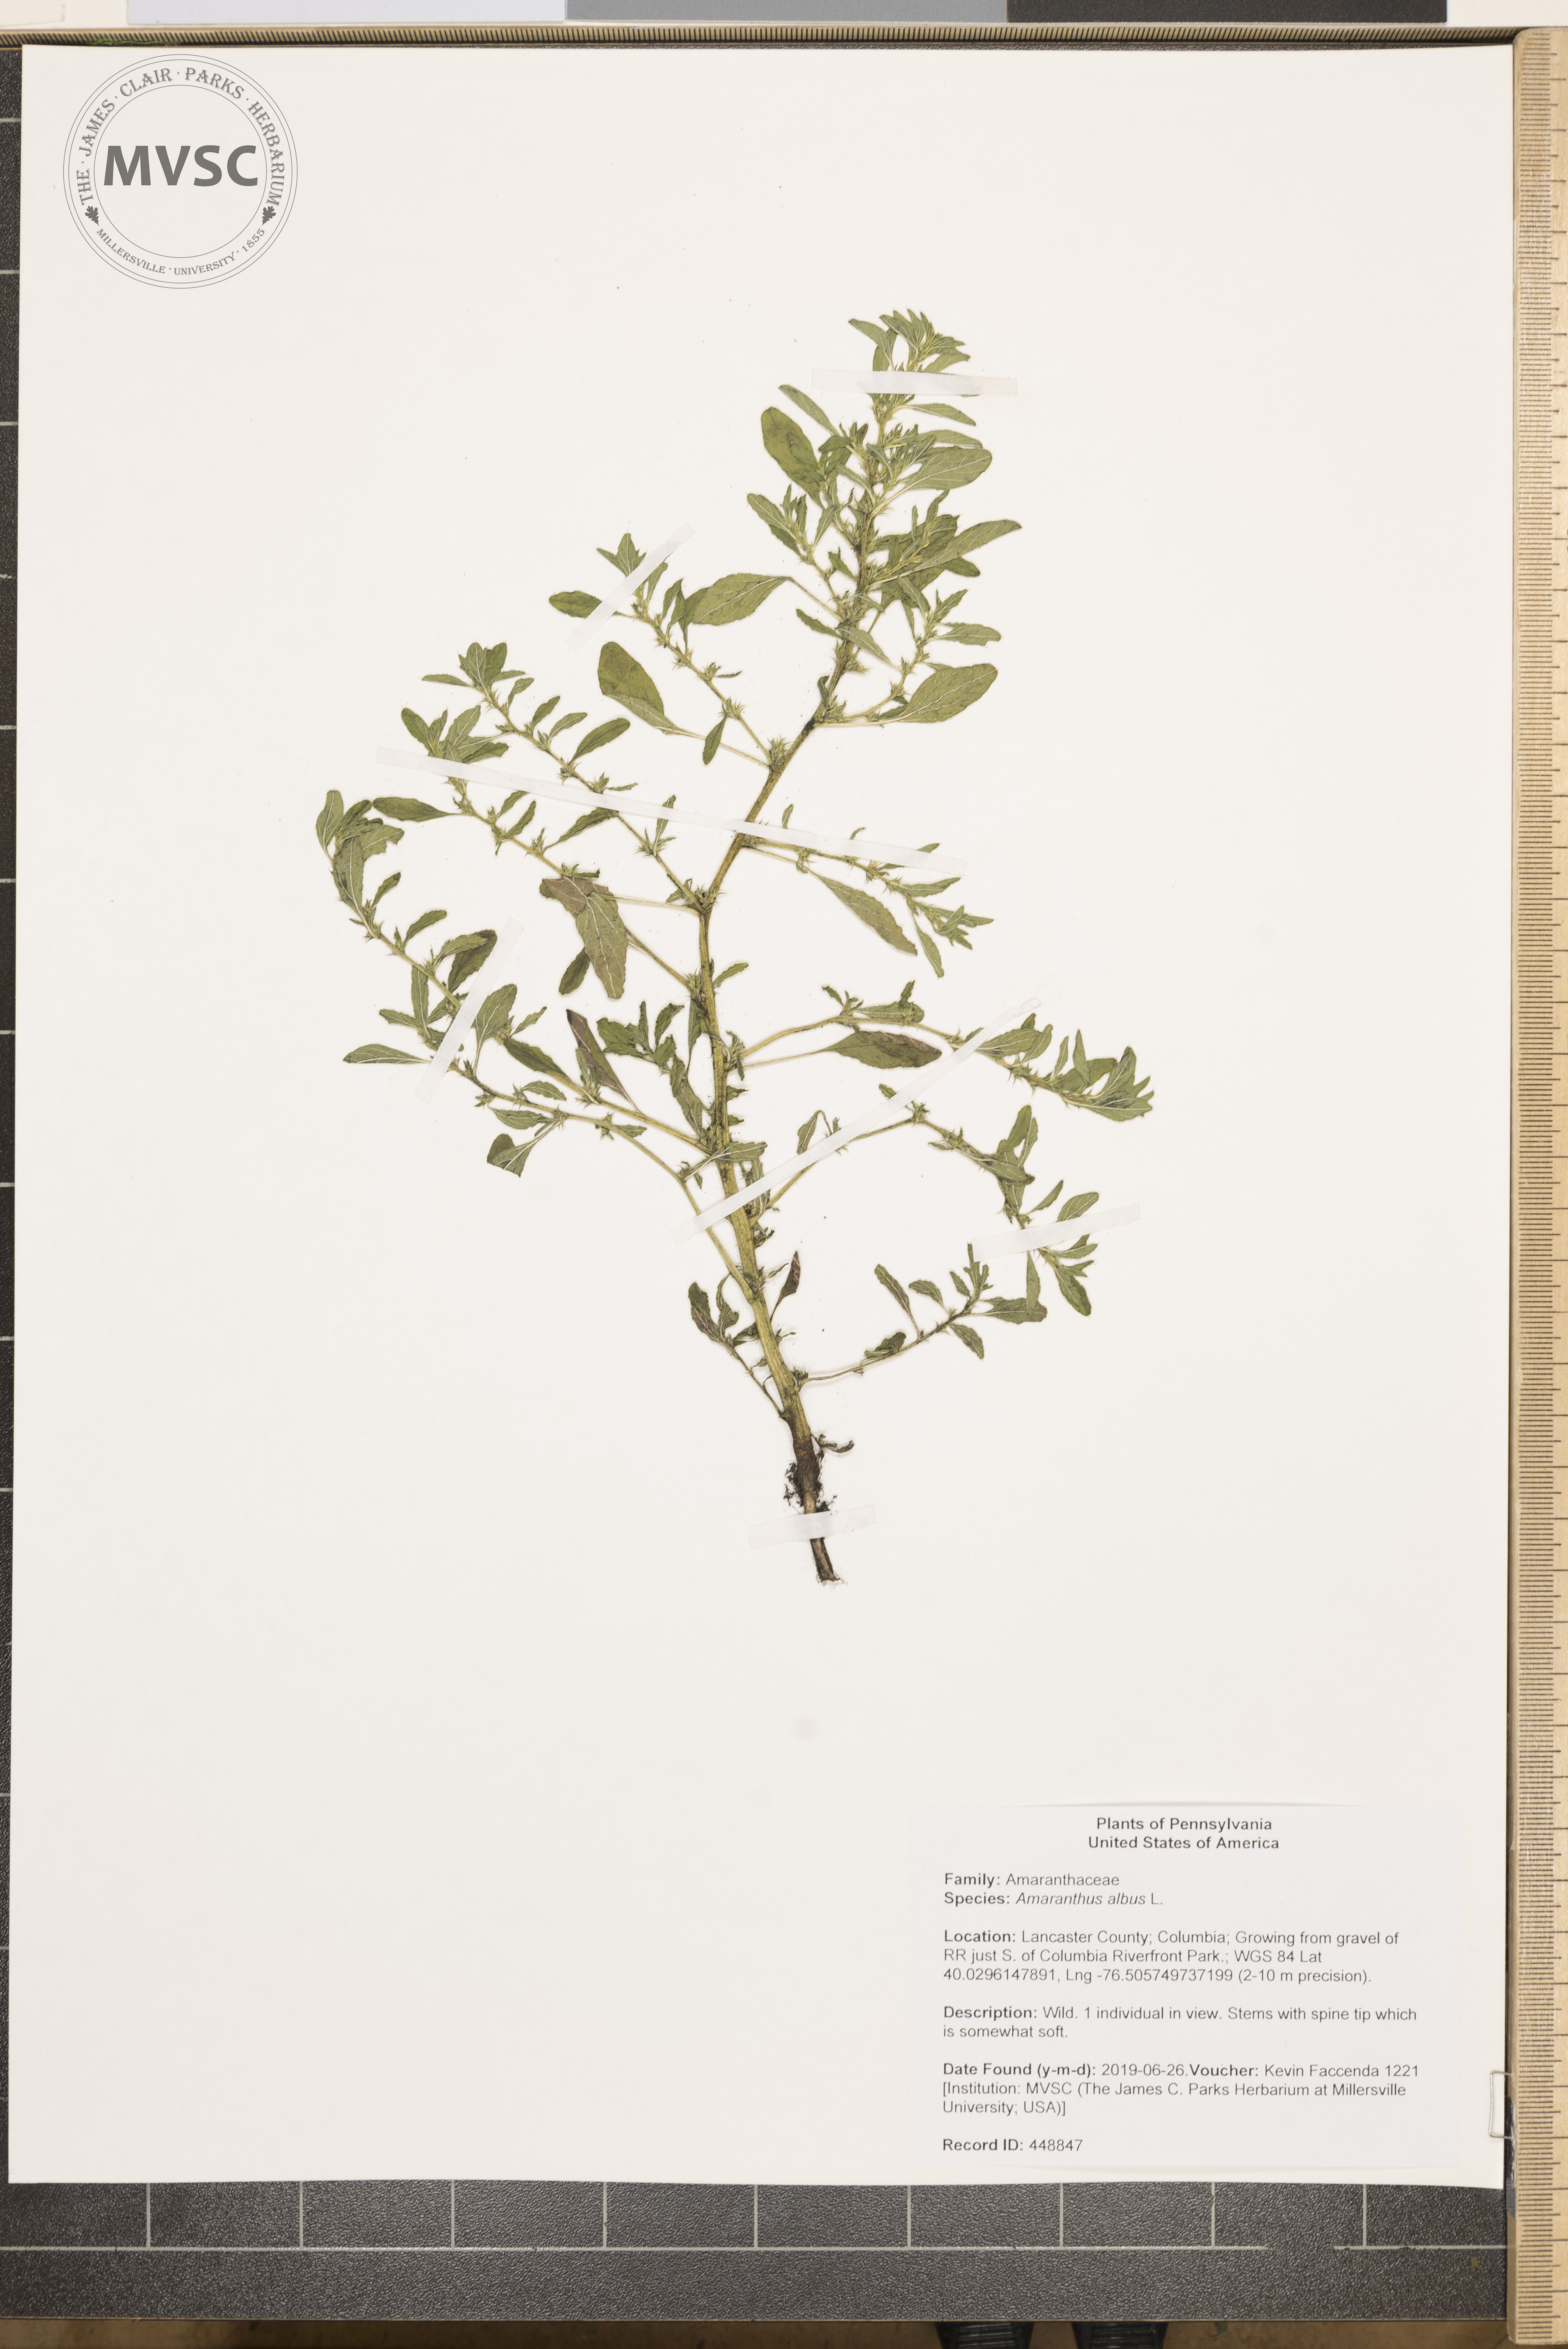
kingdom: Plantae
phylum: Tracheophyta
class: Magnoliopsida
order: Caryophyllales
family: Amaranthaceae
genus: Amaranthus
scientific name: Amaranthus albus
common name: White pigweed
